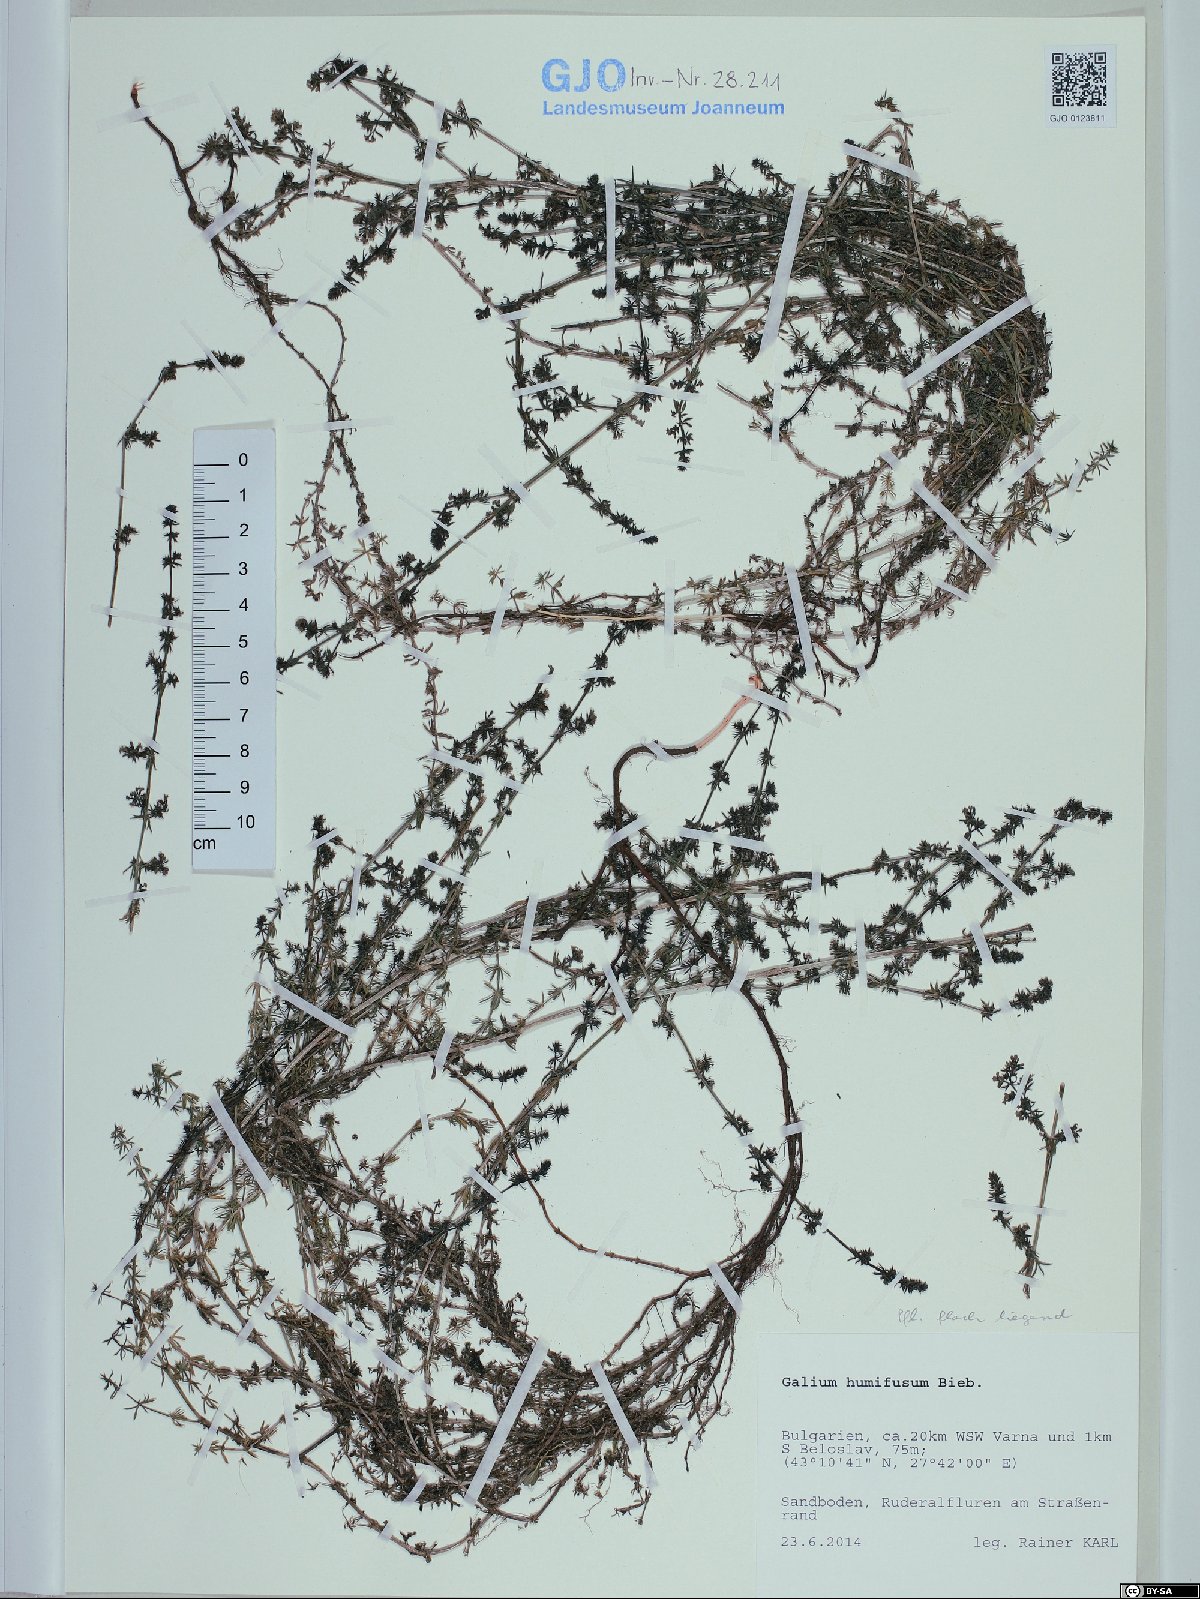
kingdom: Plantae
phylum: Tracheophyta
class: Magnoliopsida
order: Gentianales
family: Rubiaceae
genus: Galium
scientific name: Galium humifusum
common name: Spreading bedstraw
